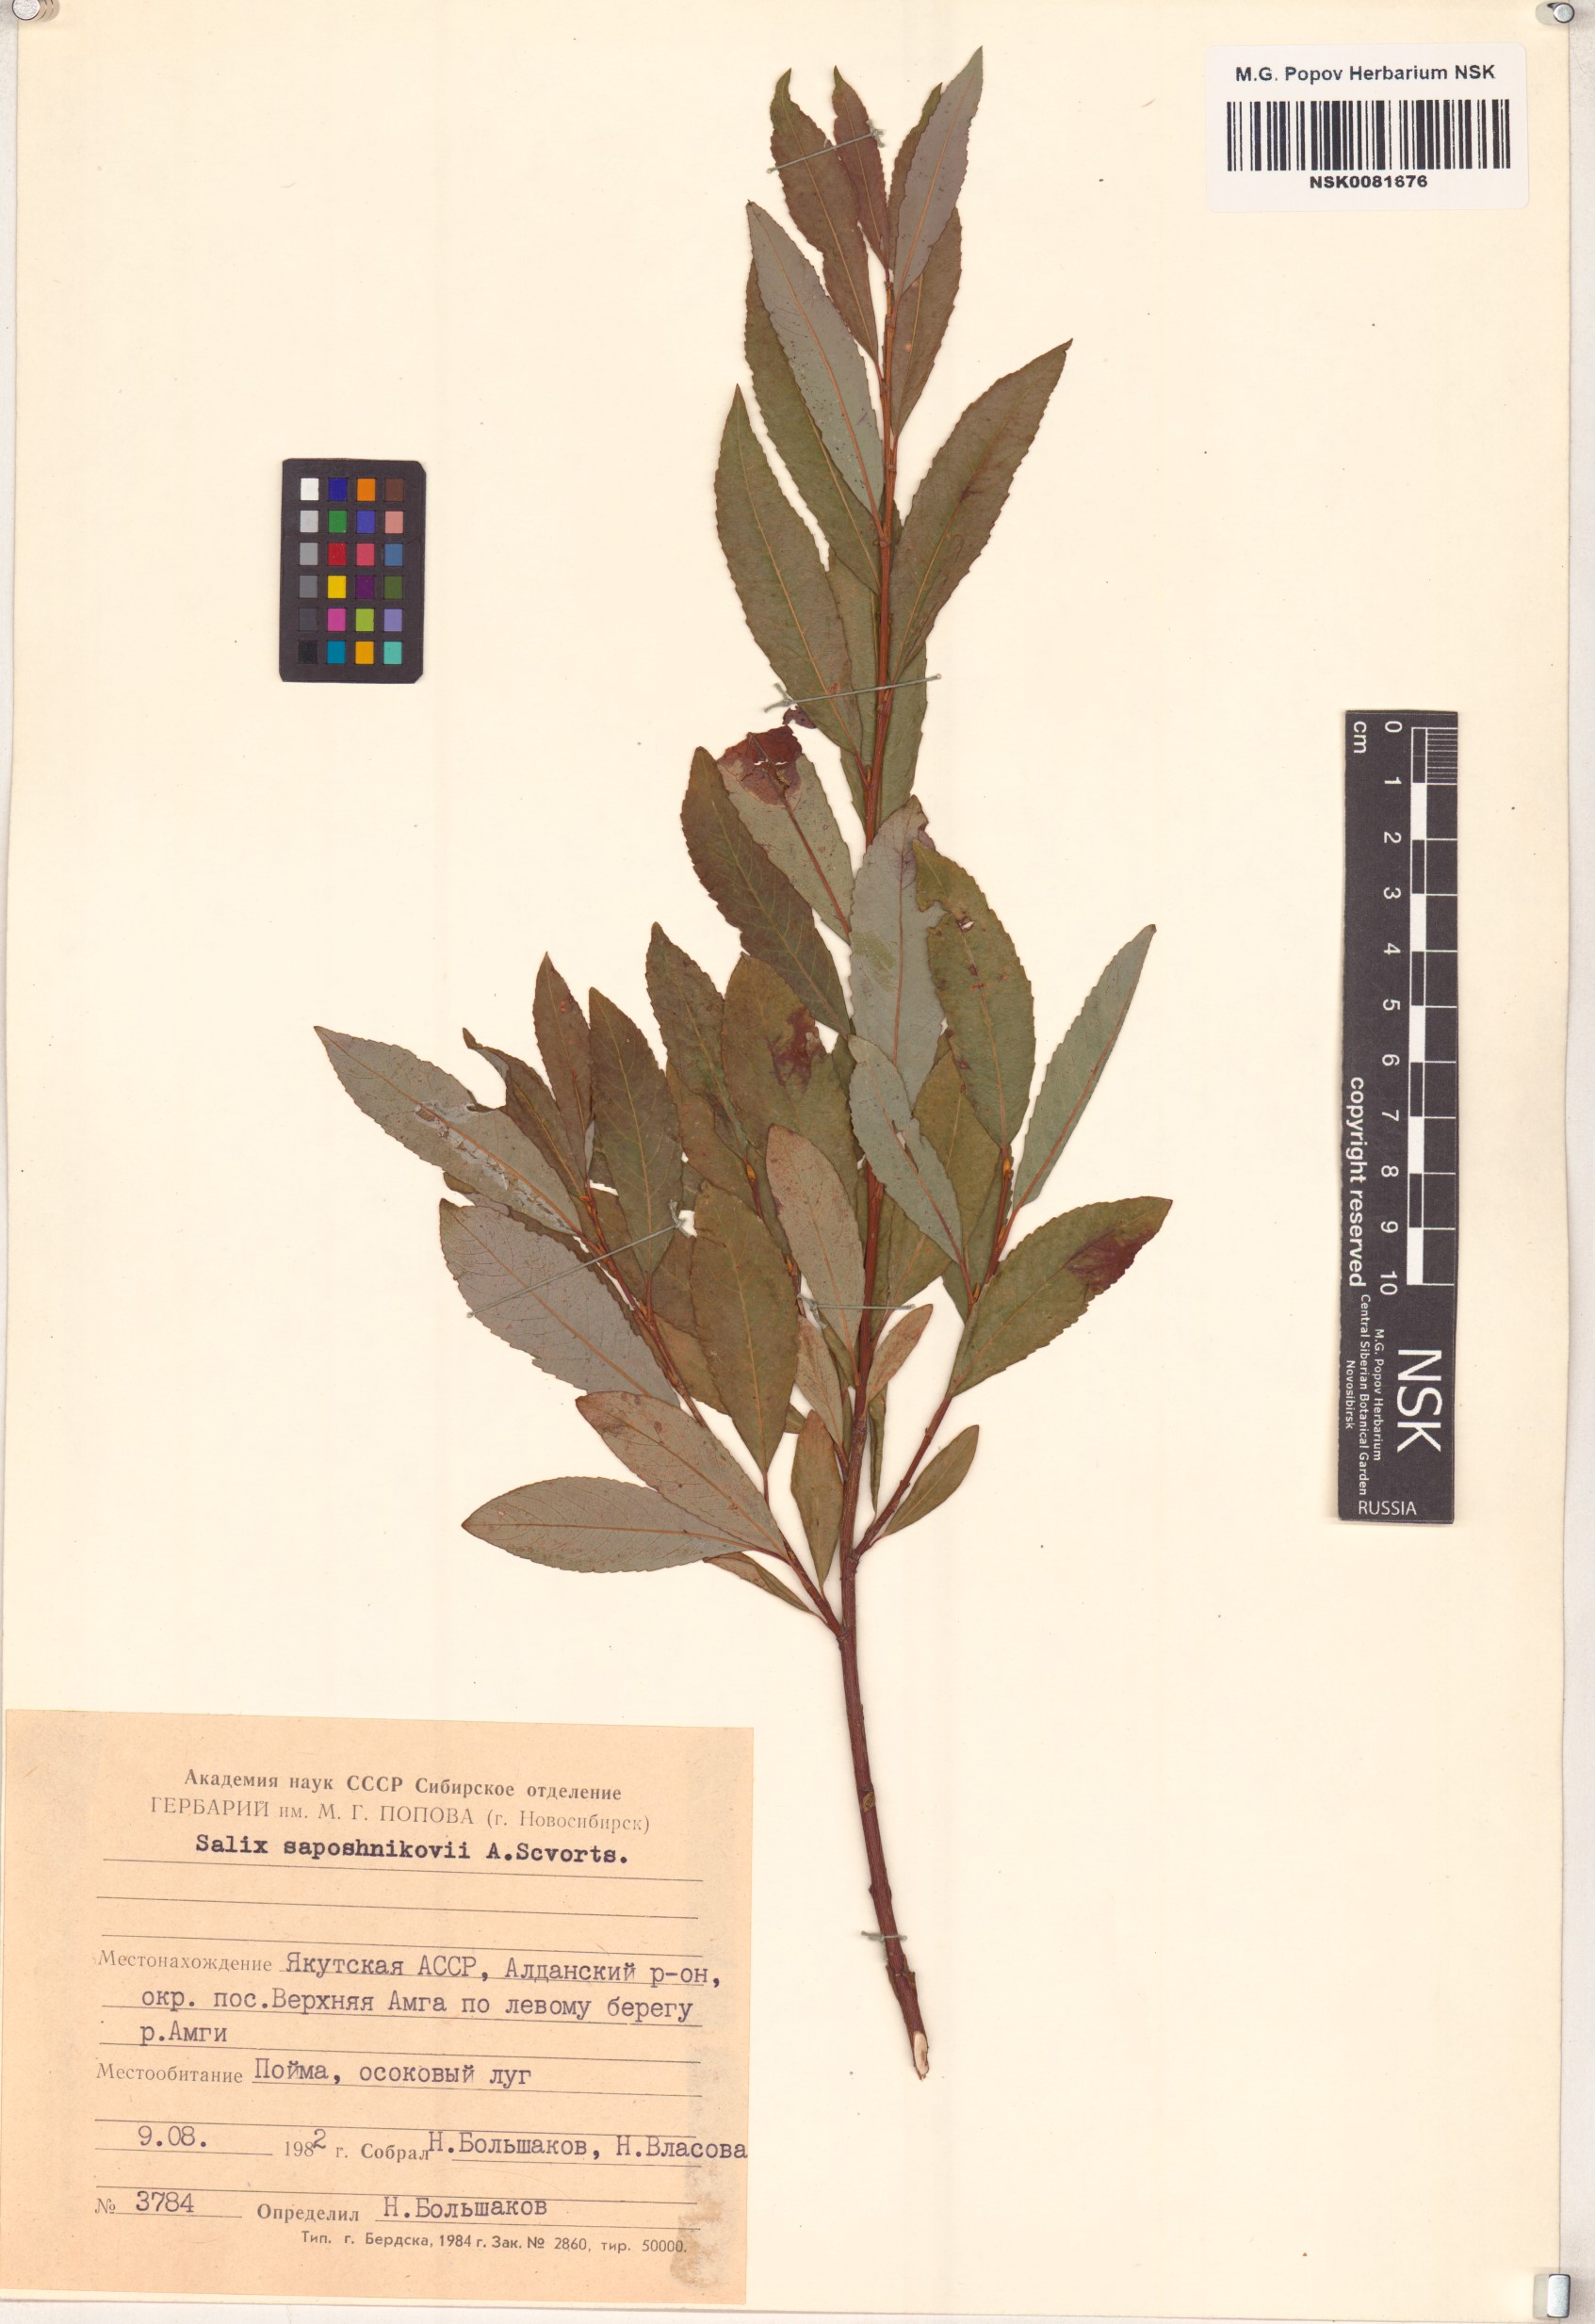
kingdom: Plantae
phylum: Tracheophyta
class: Magnoliopsida
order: Malpighiales
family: Salicaceae
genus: Salix
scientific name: Salix saposhnikovii
